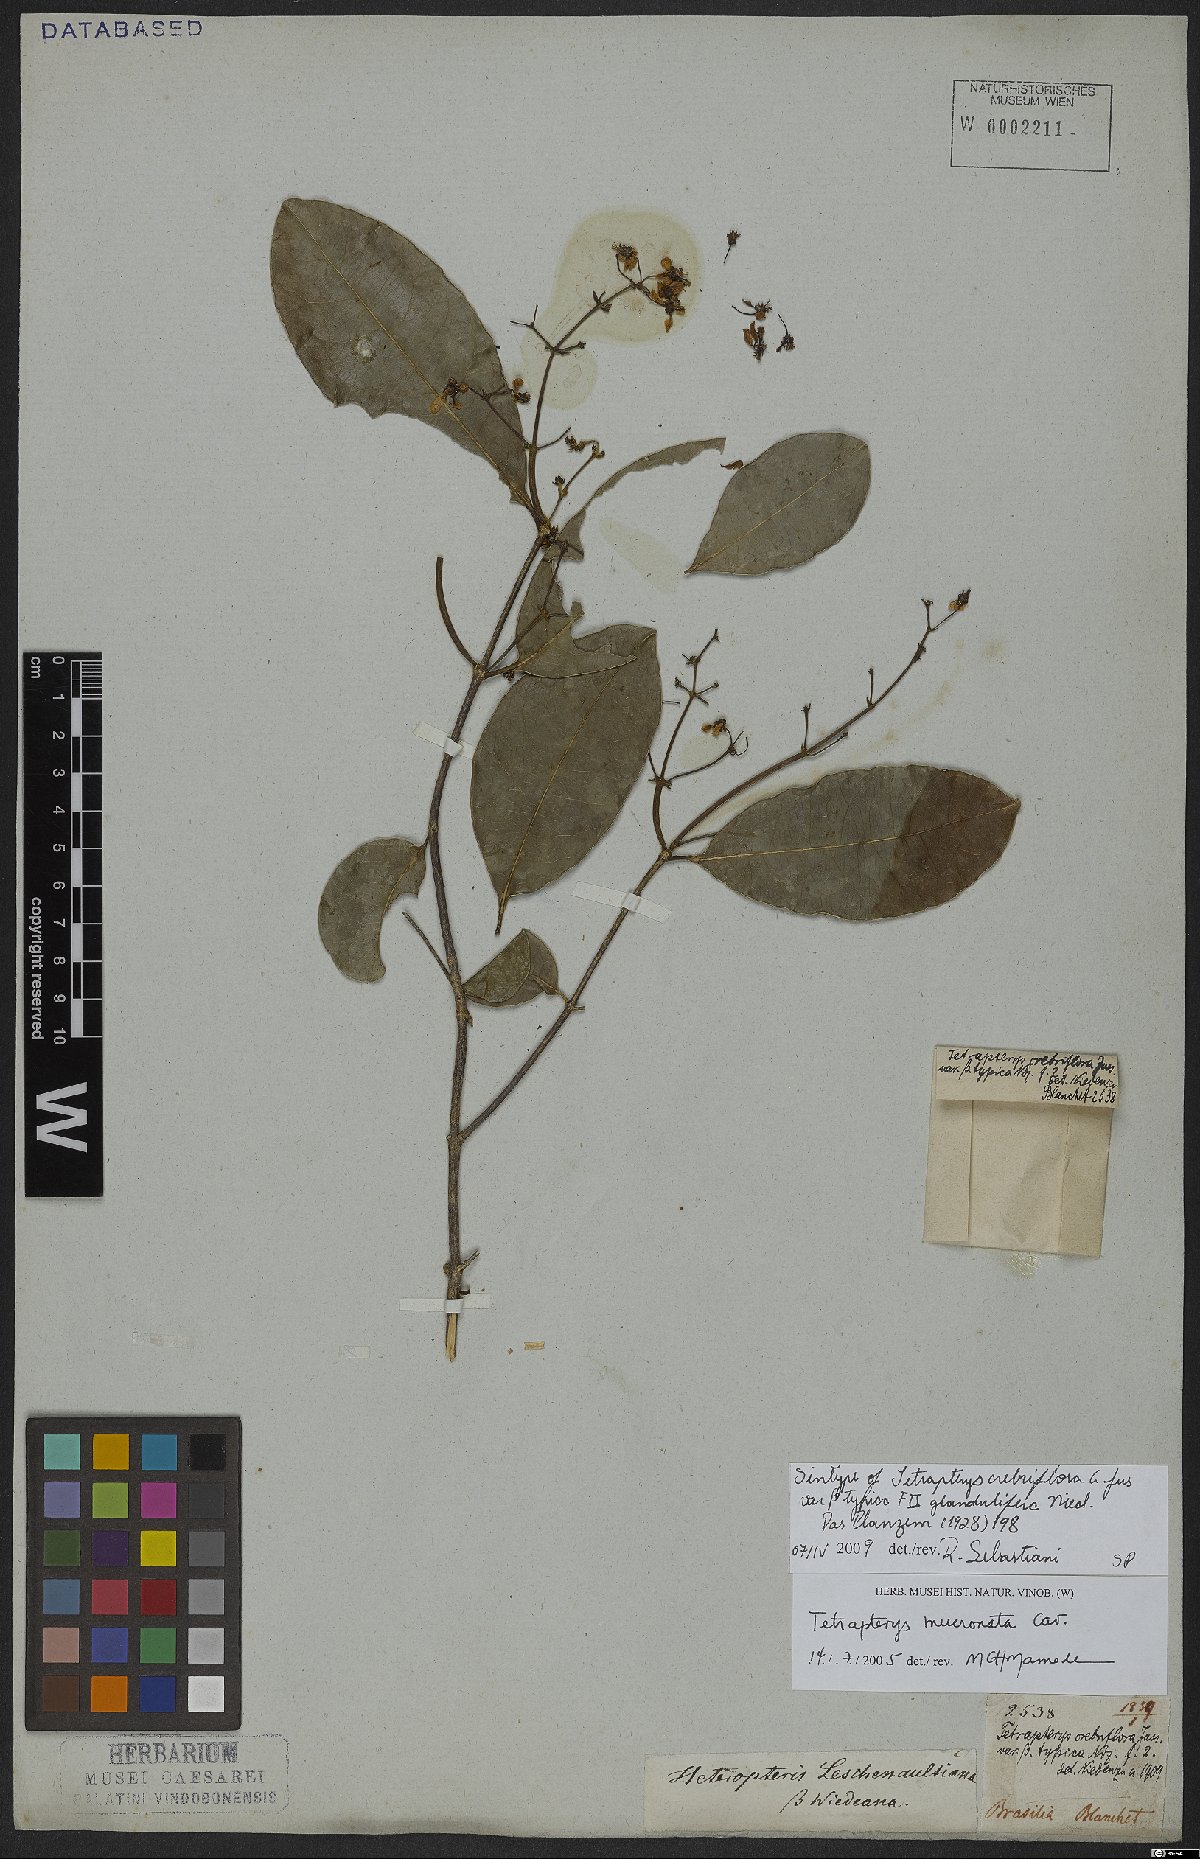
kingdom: Plantae
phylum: Tracheophyta
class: Magnoliopsida
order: Malpighiales
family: Malpighiaceae
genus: Tetrapterys
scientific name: Tetrapterys mucronata
